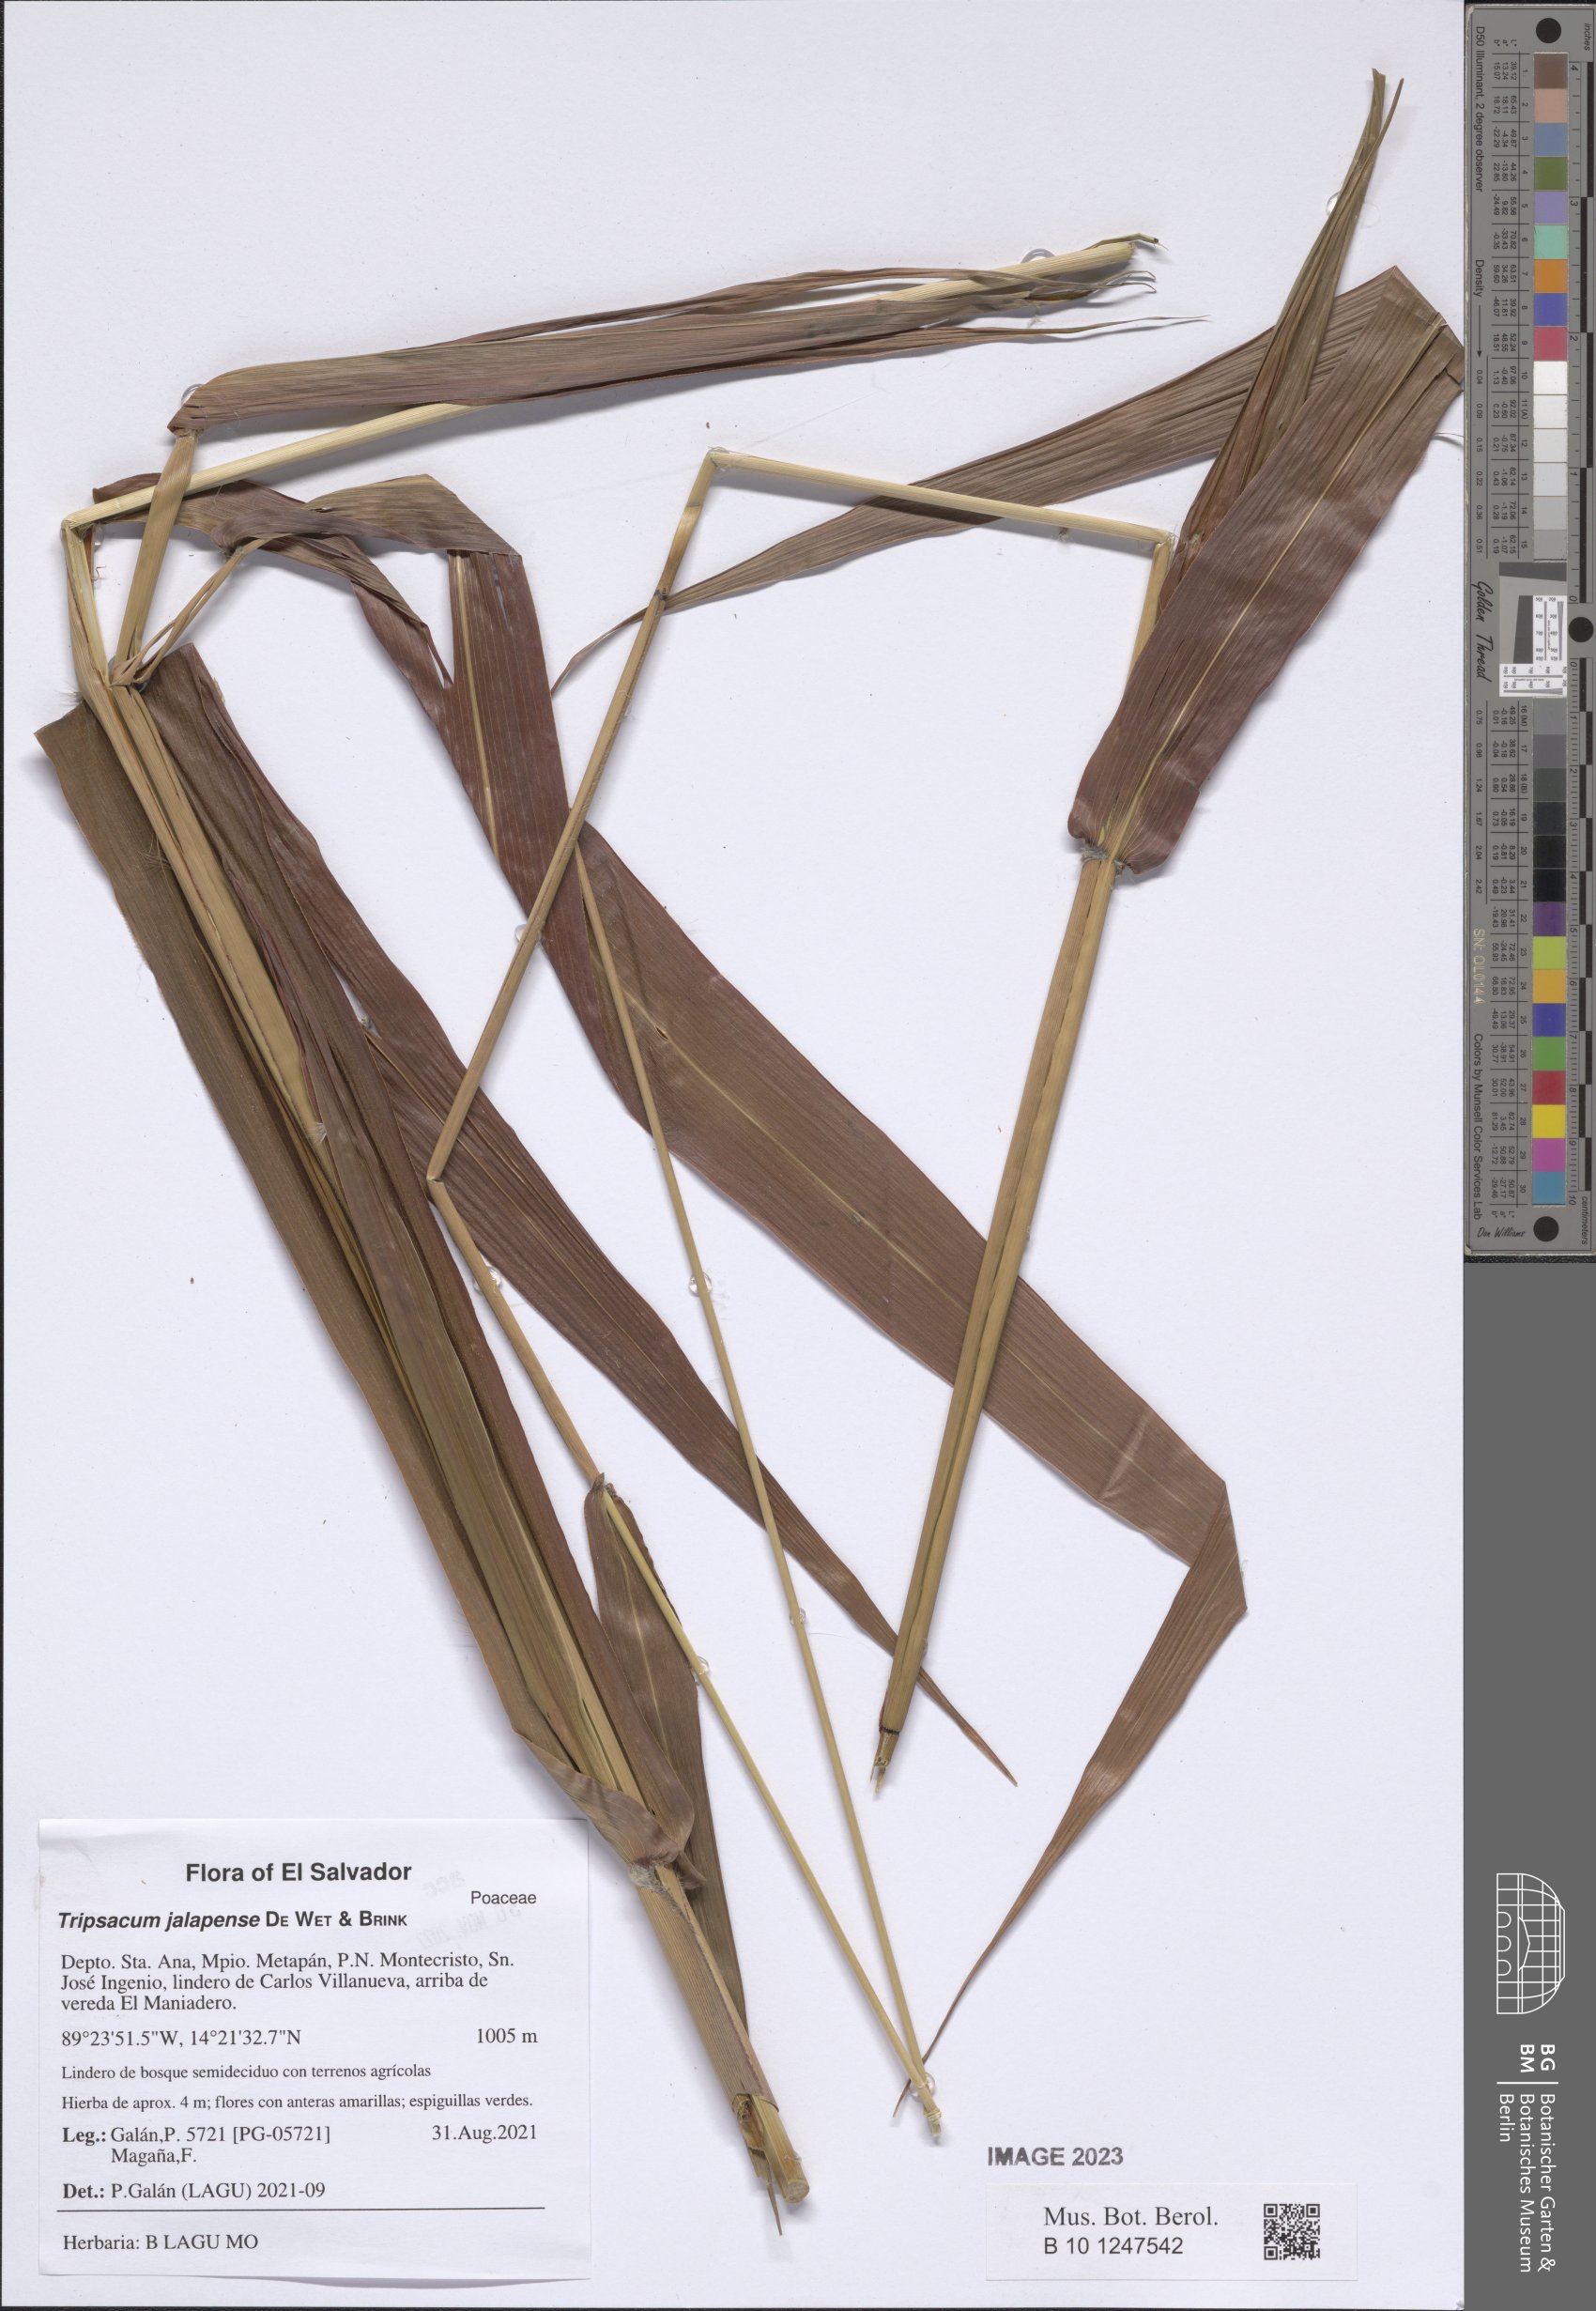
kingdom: Plantae
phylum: Tracheophyta
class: Liliopsida
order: Poales
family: Poaceae
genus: Tripsacum
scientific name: Tripsacum jalapense
